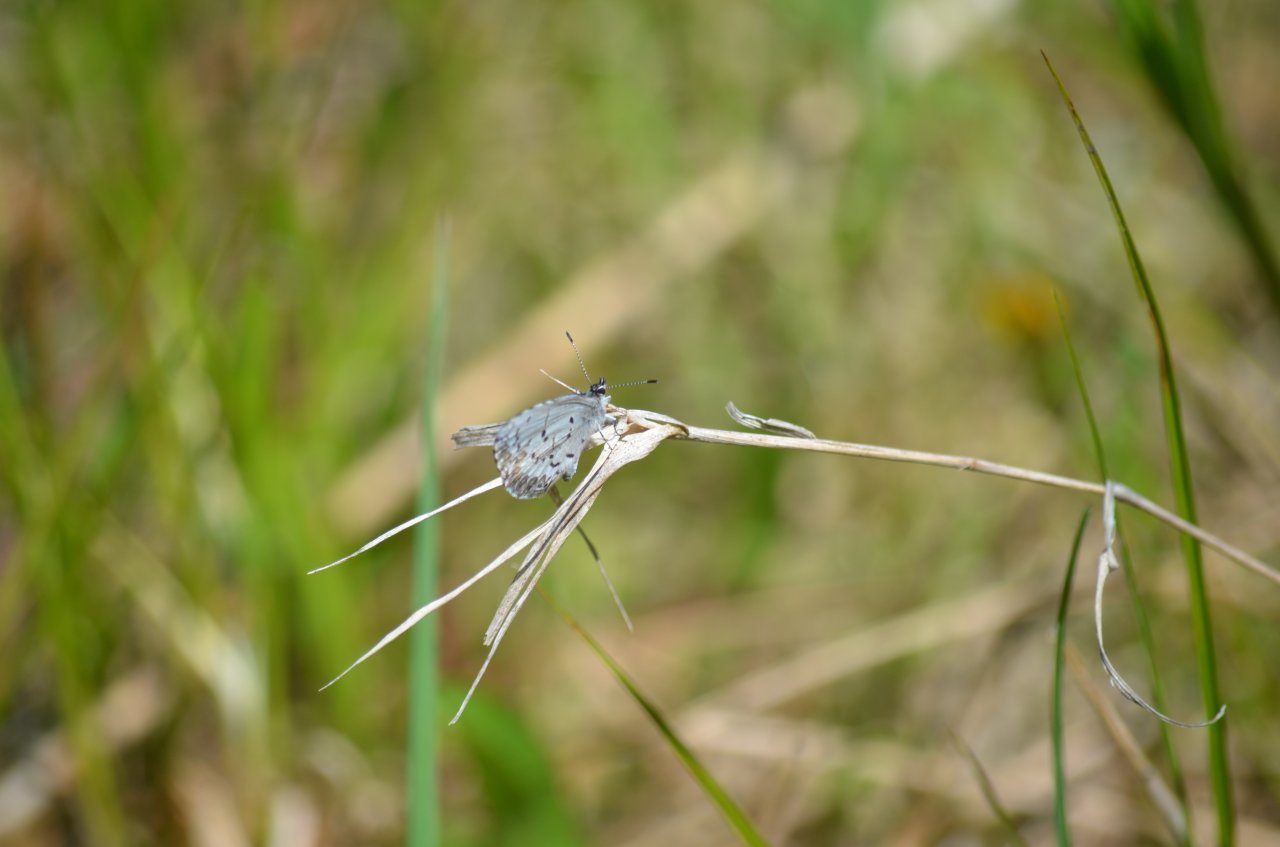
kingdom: Animalia
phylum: Arthropoda
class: Insecta
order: Lepidoptera
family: Lycaenidae
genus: Celastrina
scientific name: Celastrina
